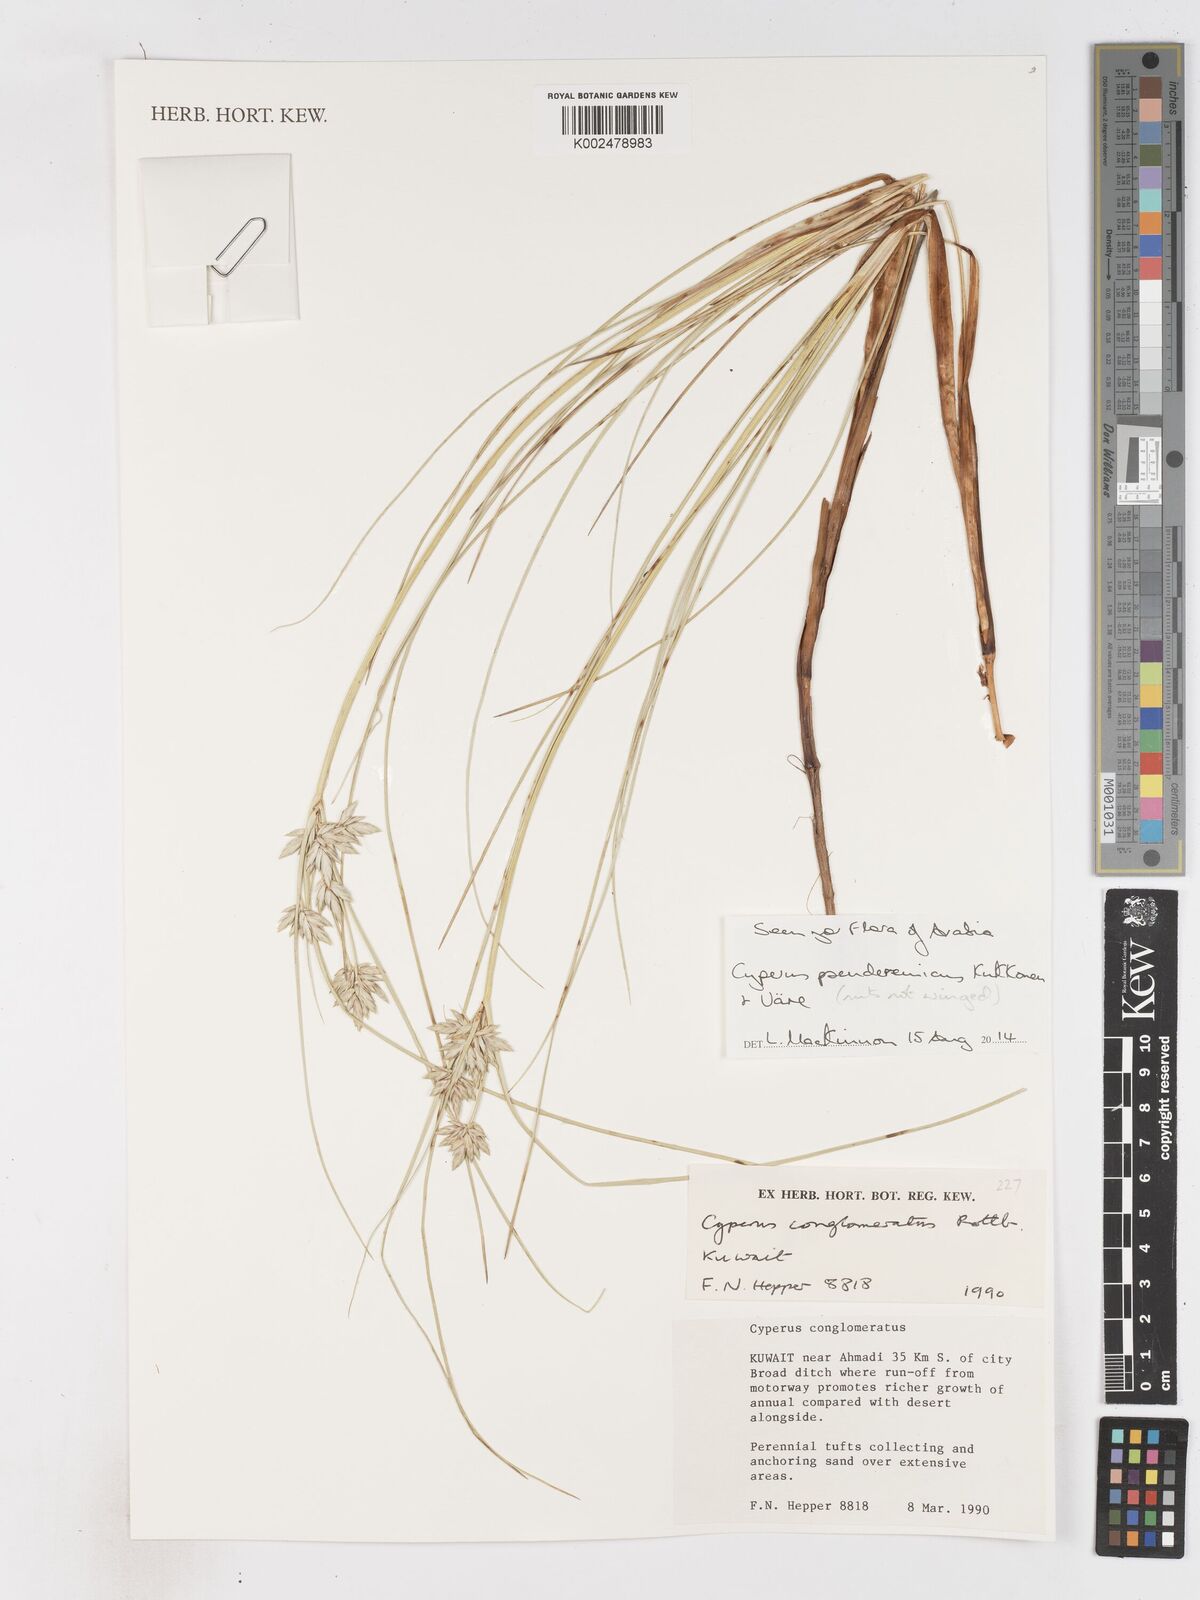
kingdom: Plantae
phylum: Tracheophyta
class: Liliopsida
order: Poales
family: Cyperaceae
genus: Cyperus
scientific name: Cyperus pseuderemicus
